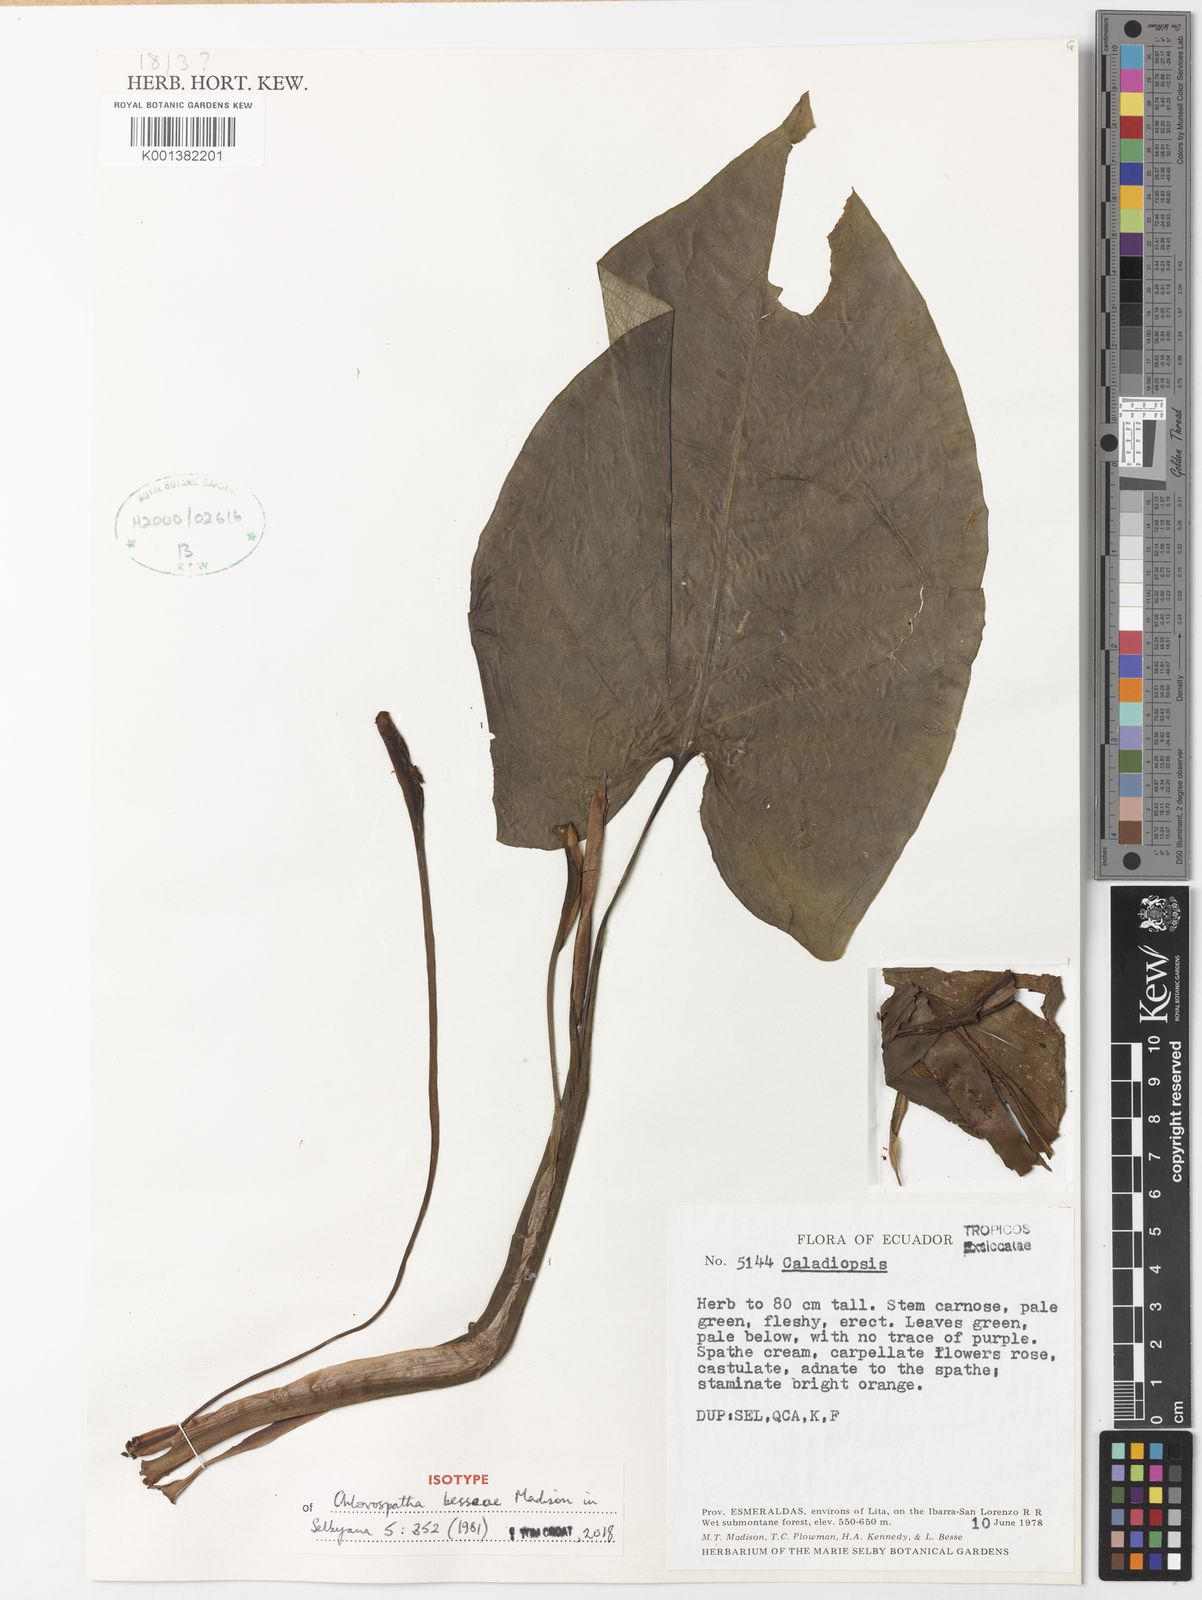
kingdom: Plantae
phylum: Tracheophyta
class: Liliopsida
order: Alismatales
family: Araceae
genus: Chlorospatha
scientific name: Chlorospatha besseae
